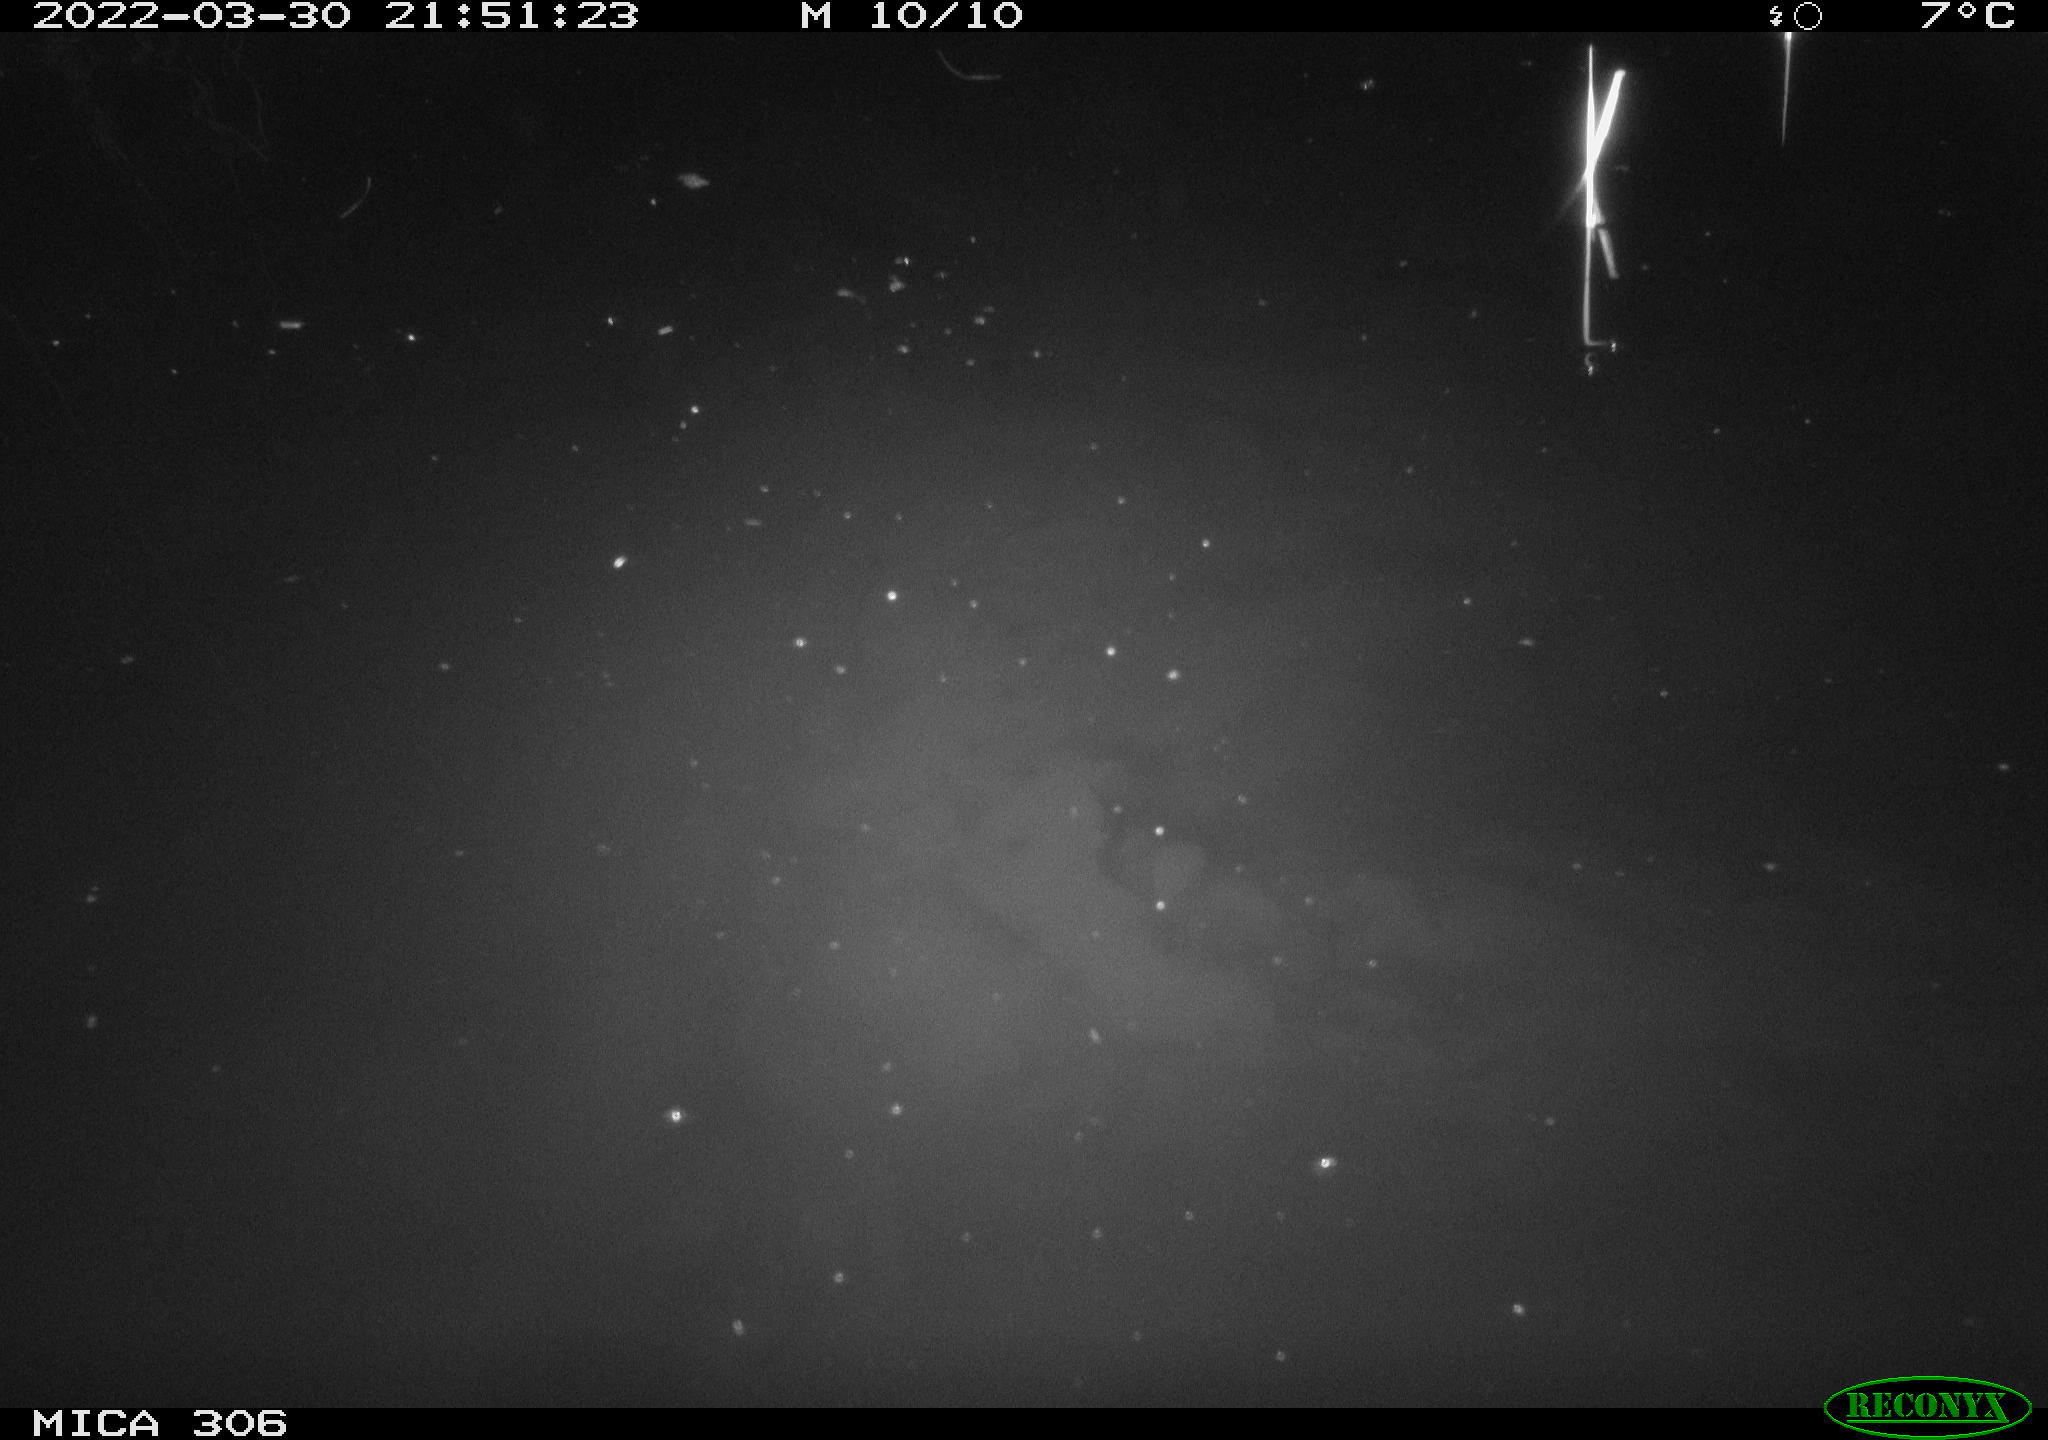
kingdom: Animalia
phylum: Chordata
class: Aves
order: Anseriformes
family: Anatidae
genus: Anas
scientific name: Anas platyrhynchos
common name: Mallard
